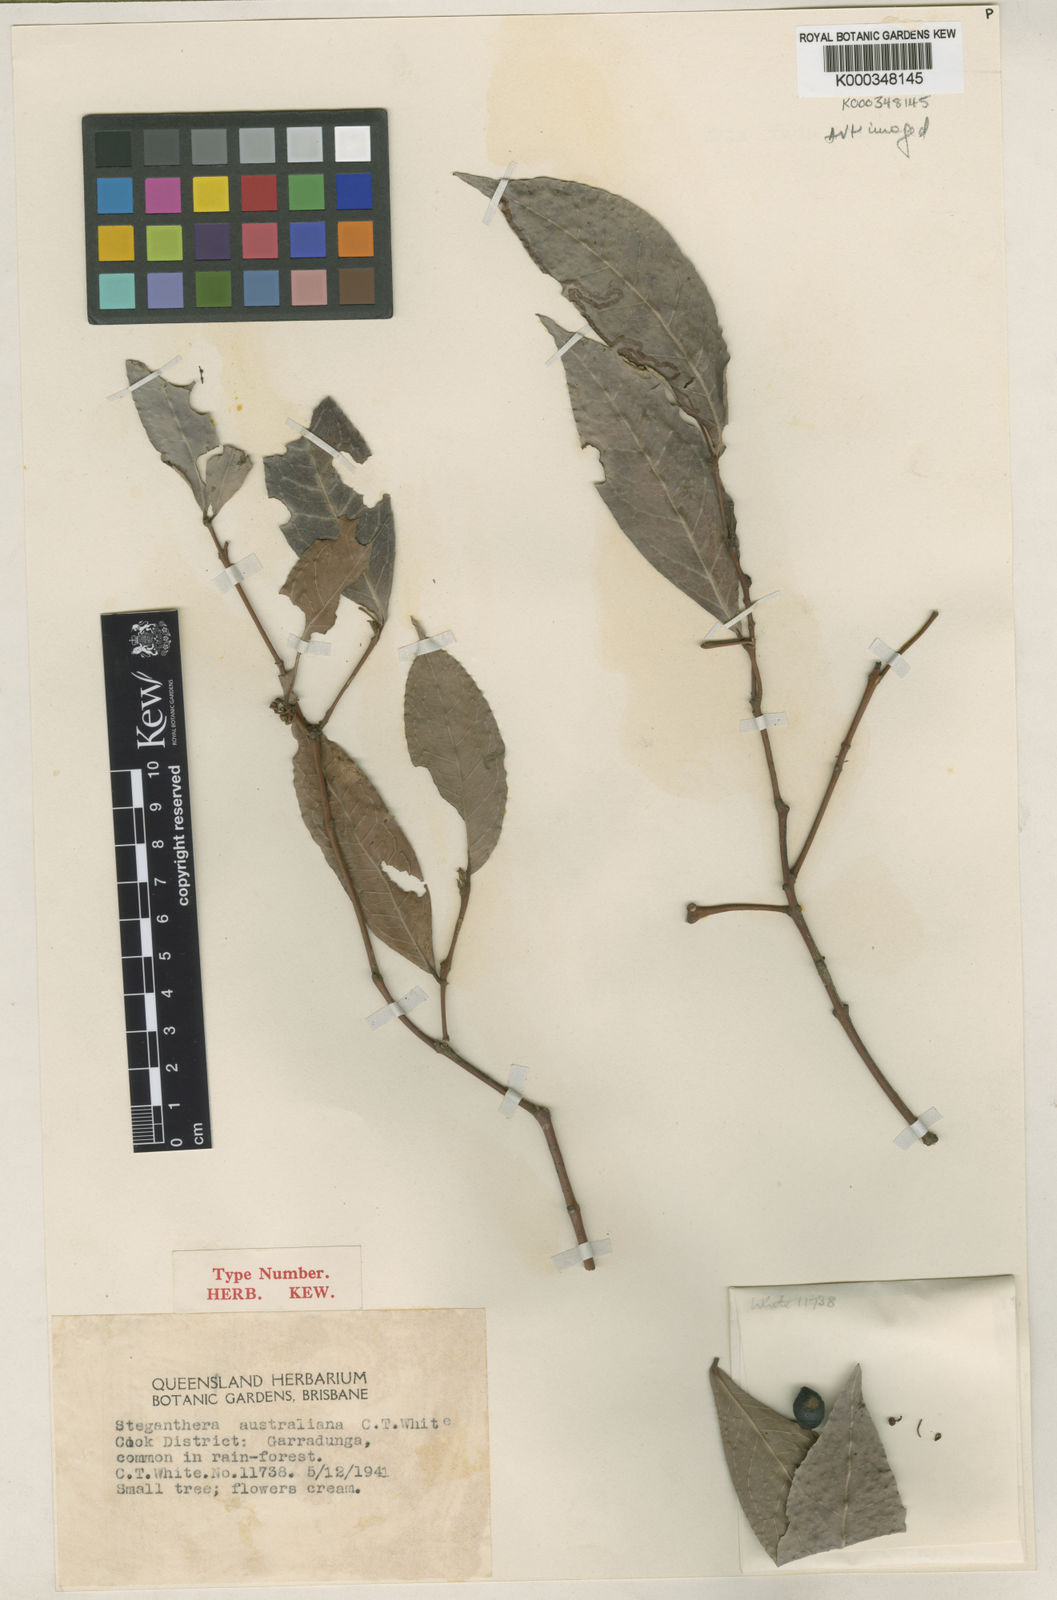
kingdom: Plantae
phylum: Tracheophyta
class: Magnoliopsida
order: Laurales
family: Monimiaceae
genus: Steganthera
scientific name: Steganthera australiana
